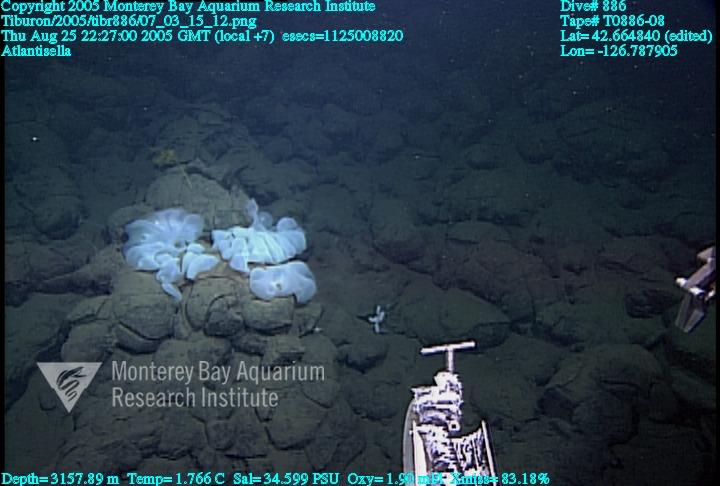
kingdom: Animalia
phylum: Porifera
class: Hexactinellida
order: Lyssacinosida
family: Euplectellidae
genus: Atlantisella
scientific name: Atlantisella
